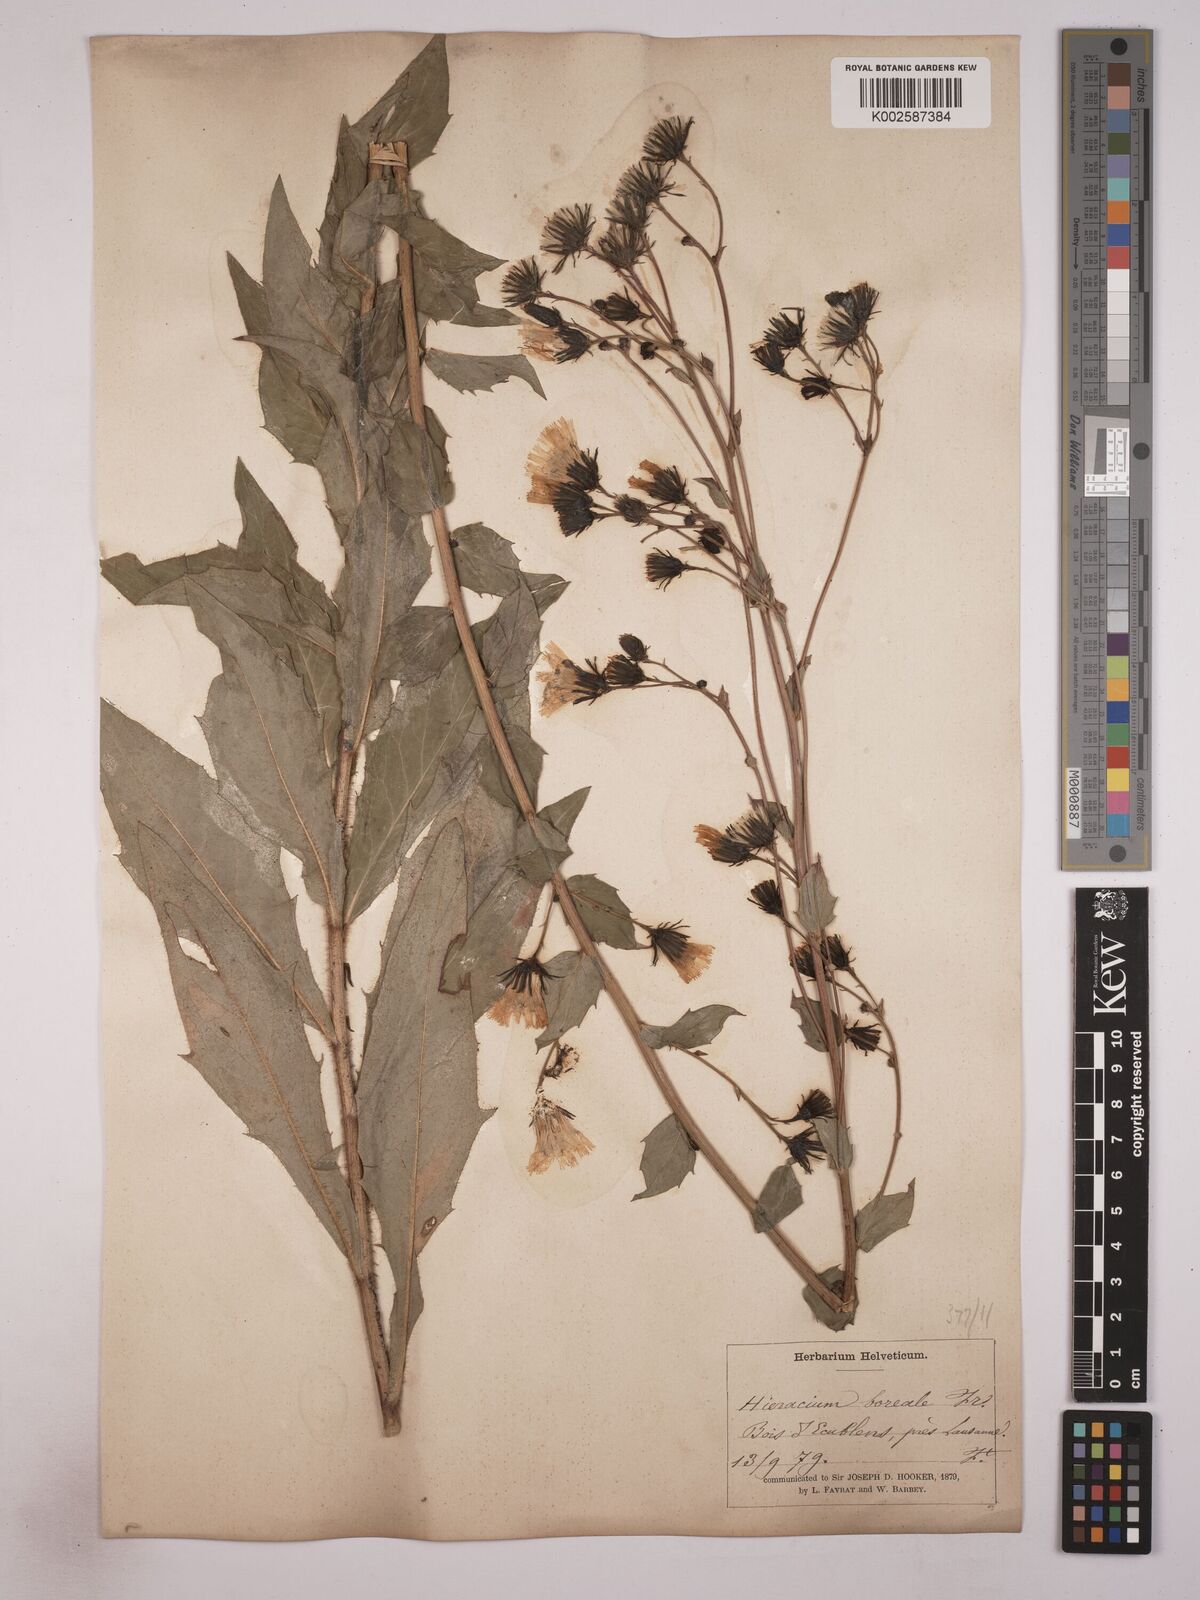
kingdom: Plantae
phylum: Tracheophyta
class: Magnoliopsida
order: Asterales
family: Asteraceae
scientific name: Asteraceae
